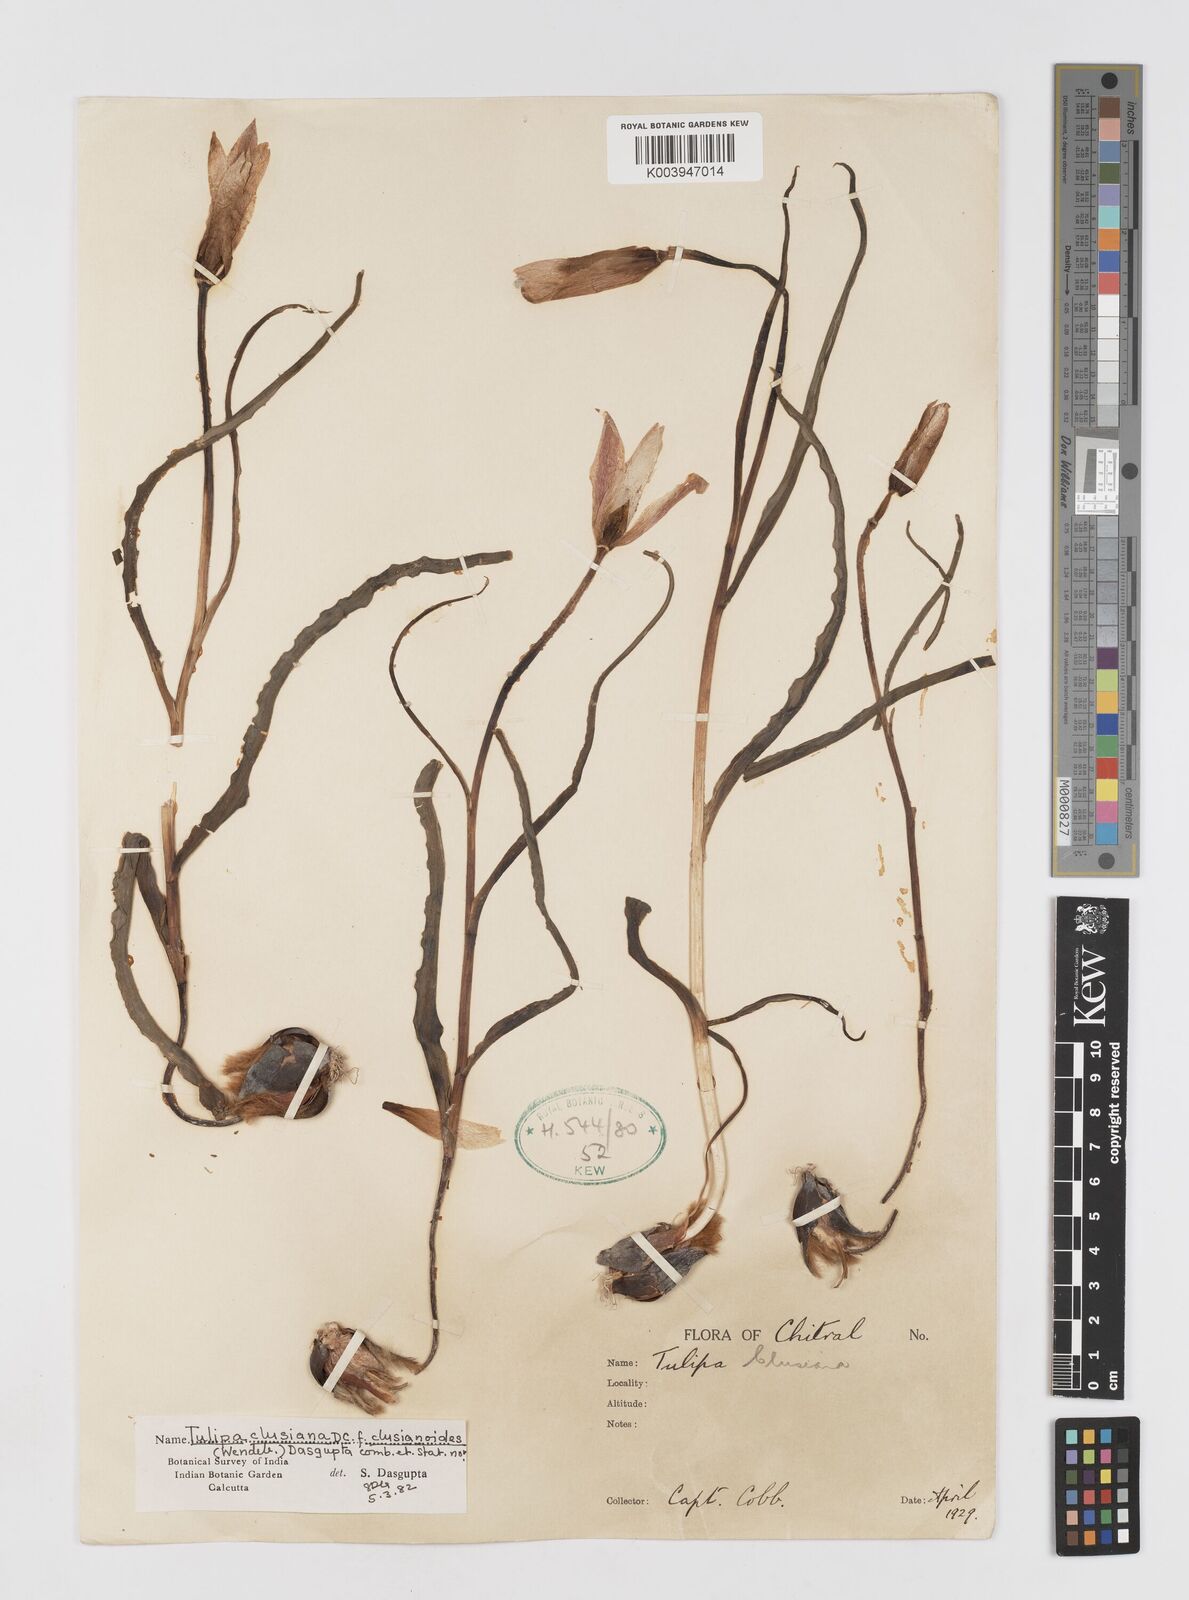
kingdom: Plantae
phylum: Tracheophyta
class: Liliopsida
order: Liliales
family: Liliaceae
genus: Tulipa
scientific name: Tulipa clusiana
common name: Lady tulip
